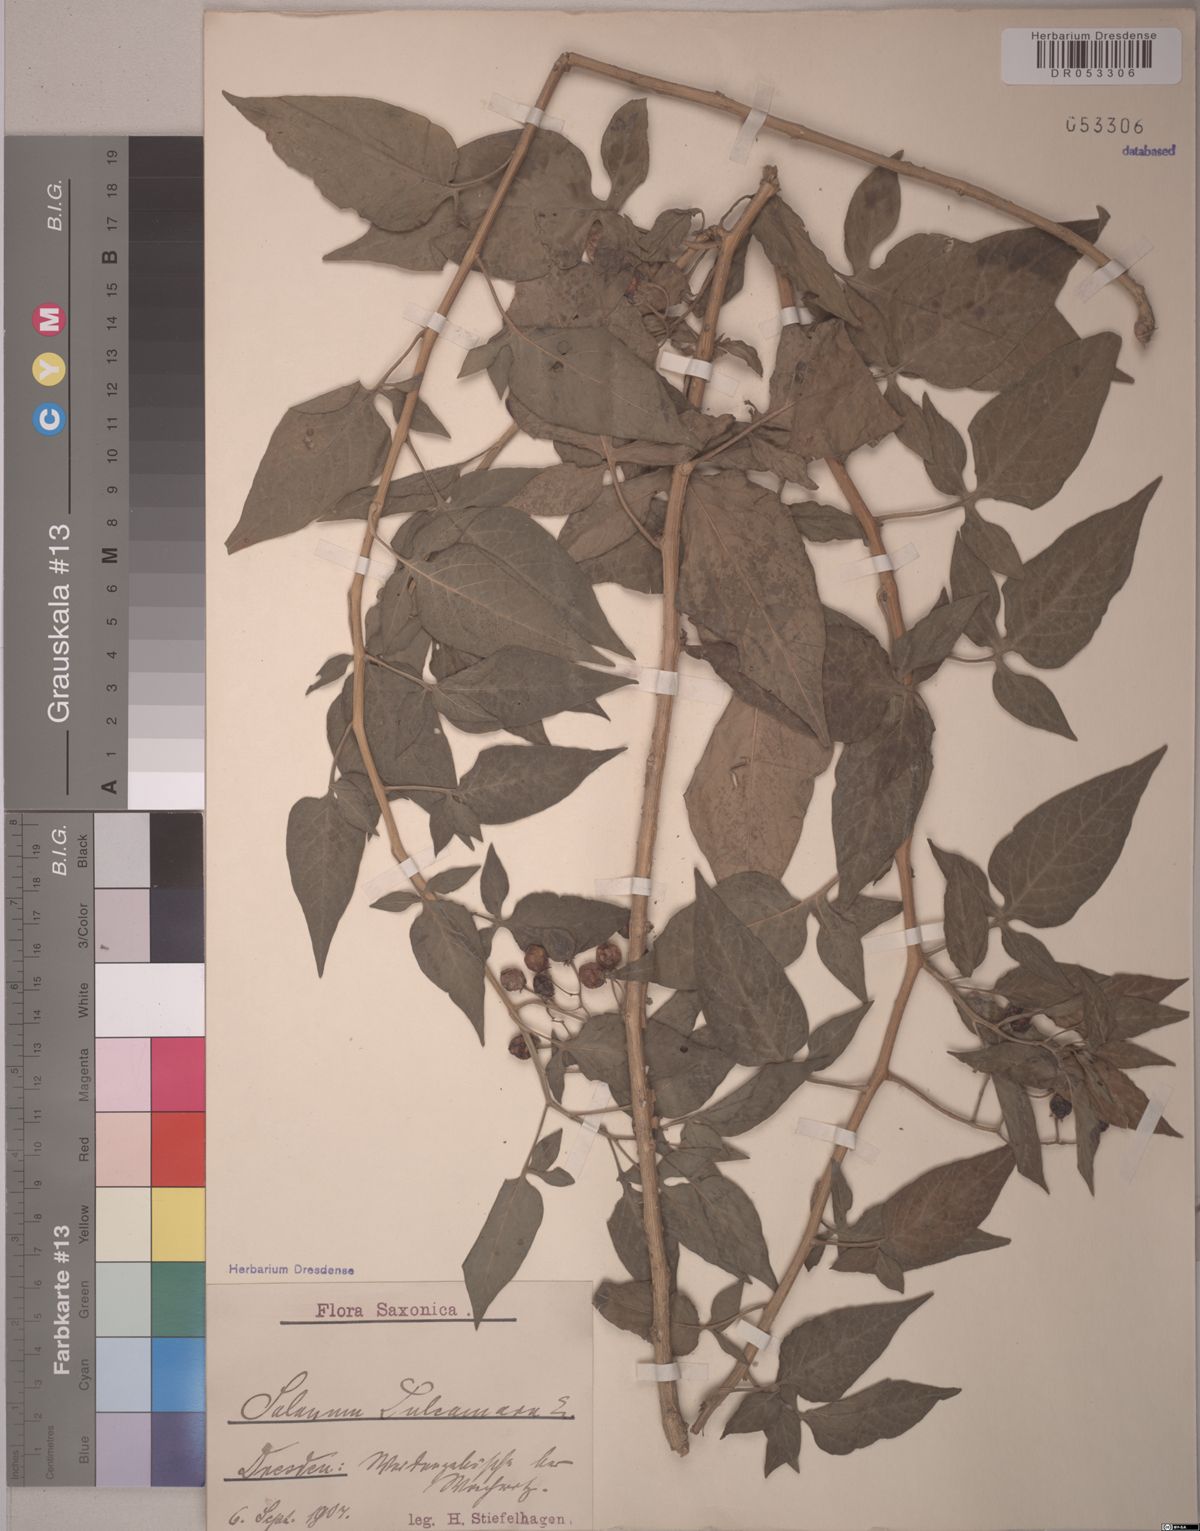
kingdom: Plantae
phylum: Tracheophyta
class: Magnoliopsida
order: Solanales
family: Solanaceae
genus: Solanum
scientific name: Solanum dulcamara
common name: Climbing nightshade
